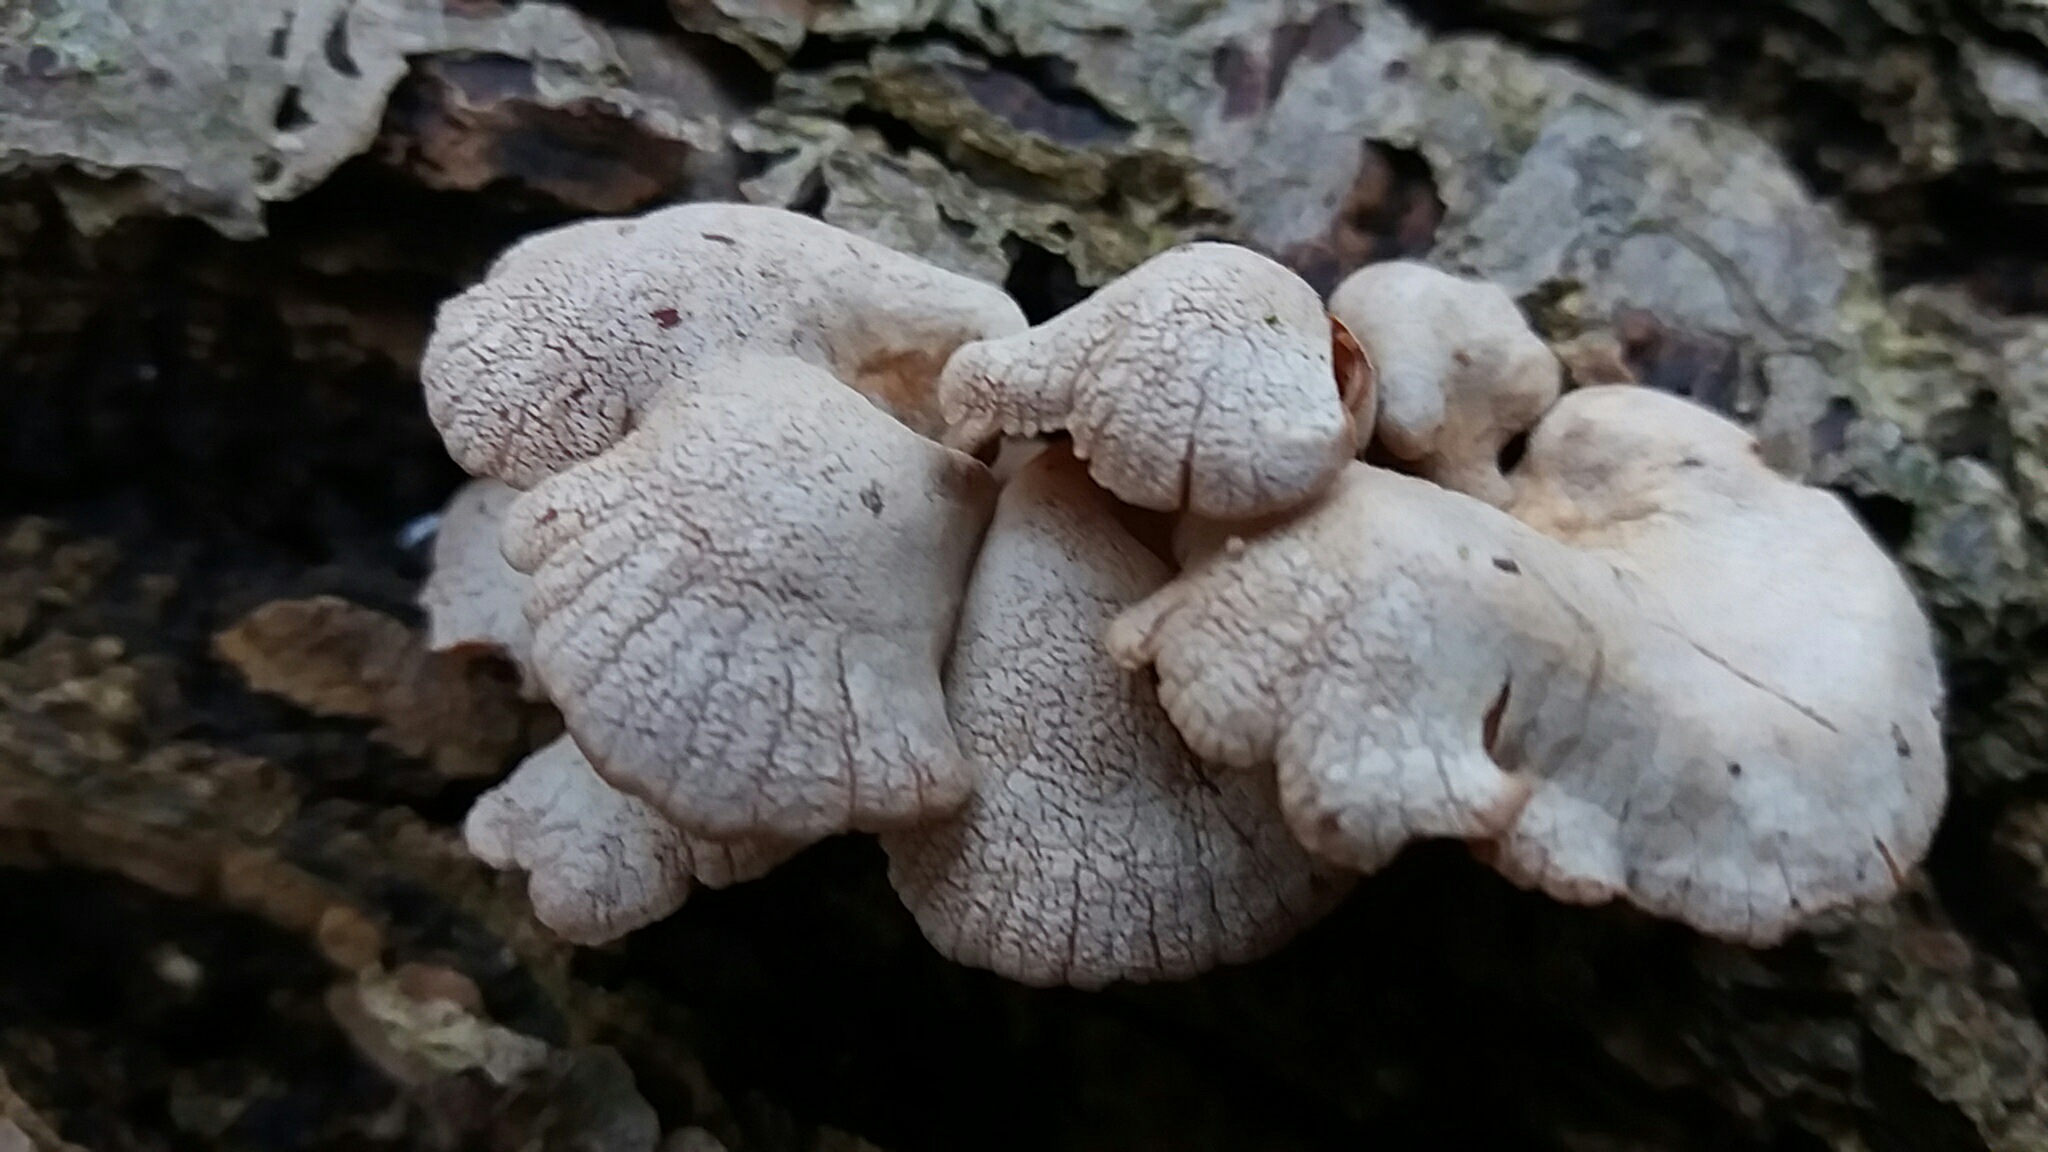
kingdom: Fungi
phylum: Basidiomycota
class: Agaricomycetes
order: Agaricales
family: Mycenaceae
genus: Panellus
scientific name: Panellus stipticus
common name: kliddet epaulethat
